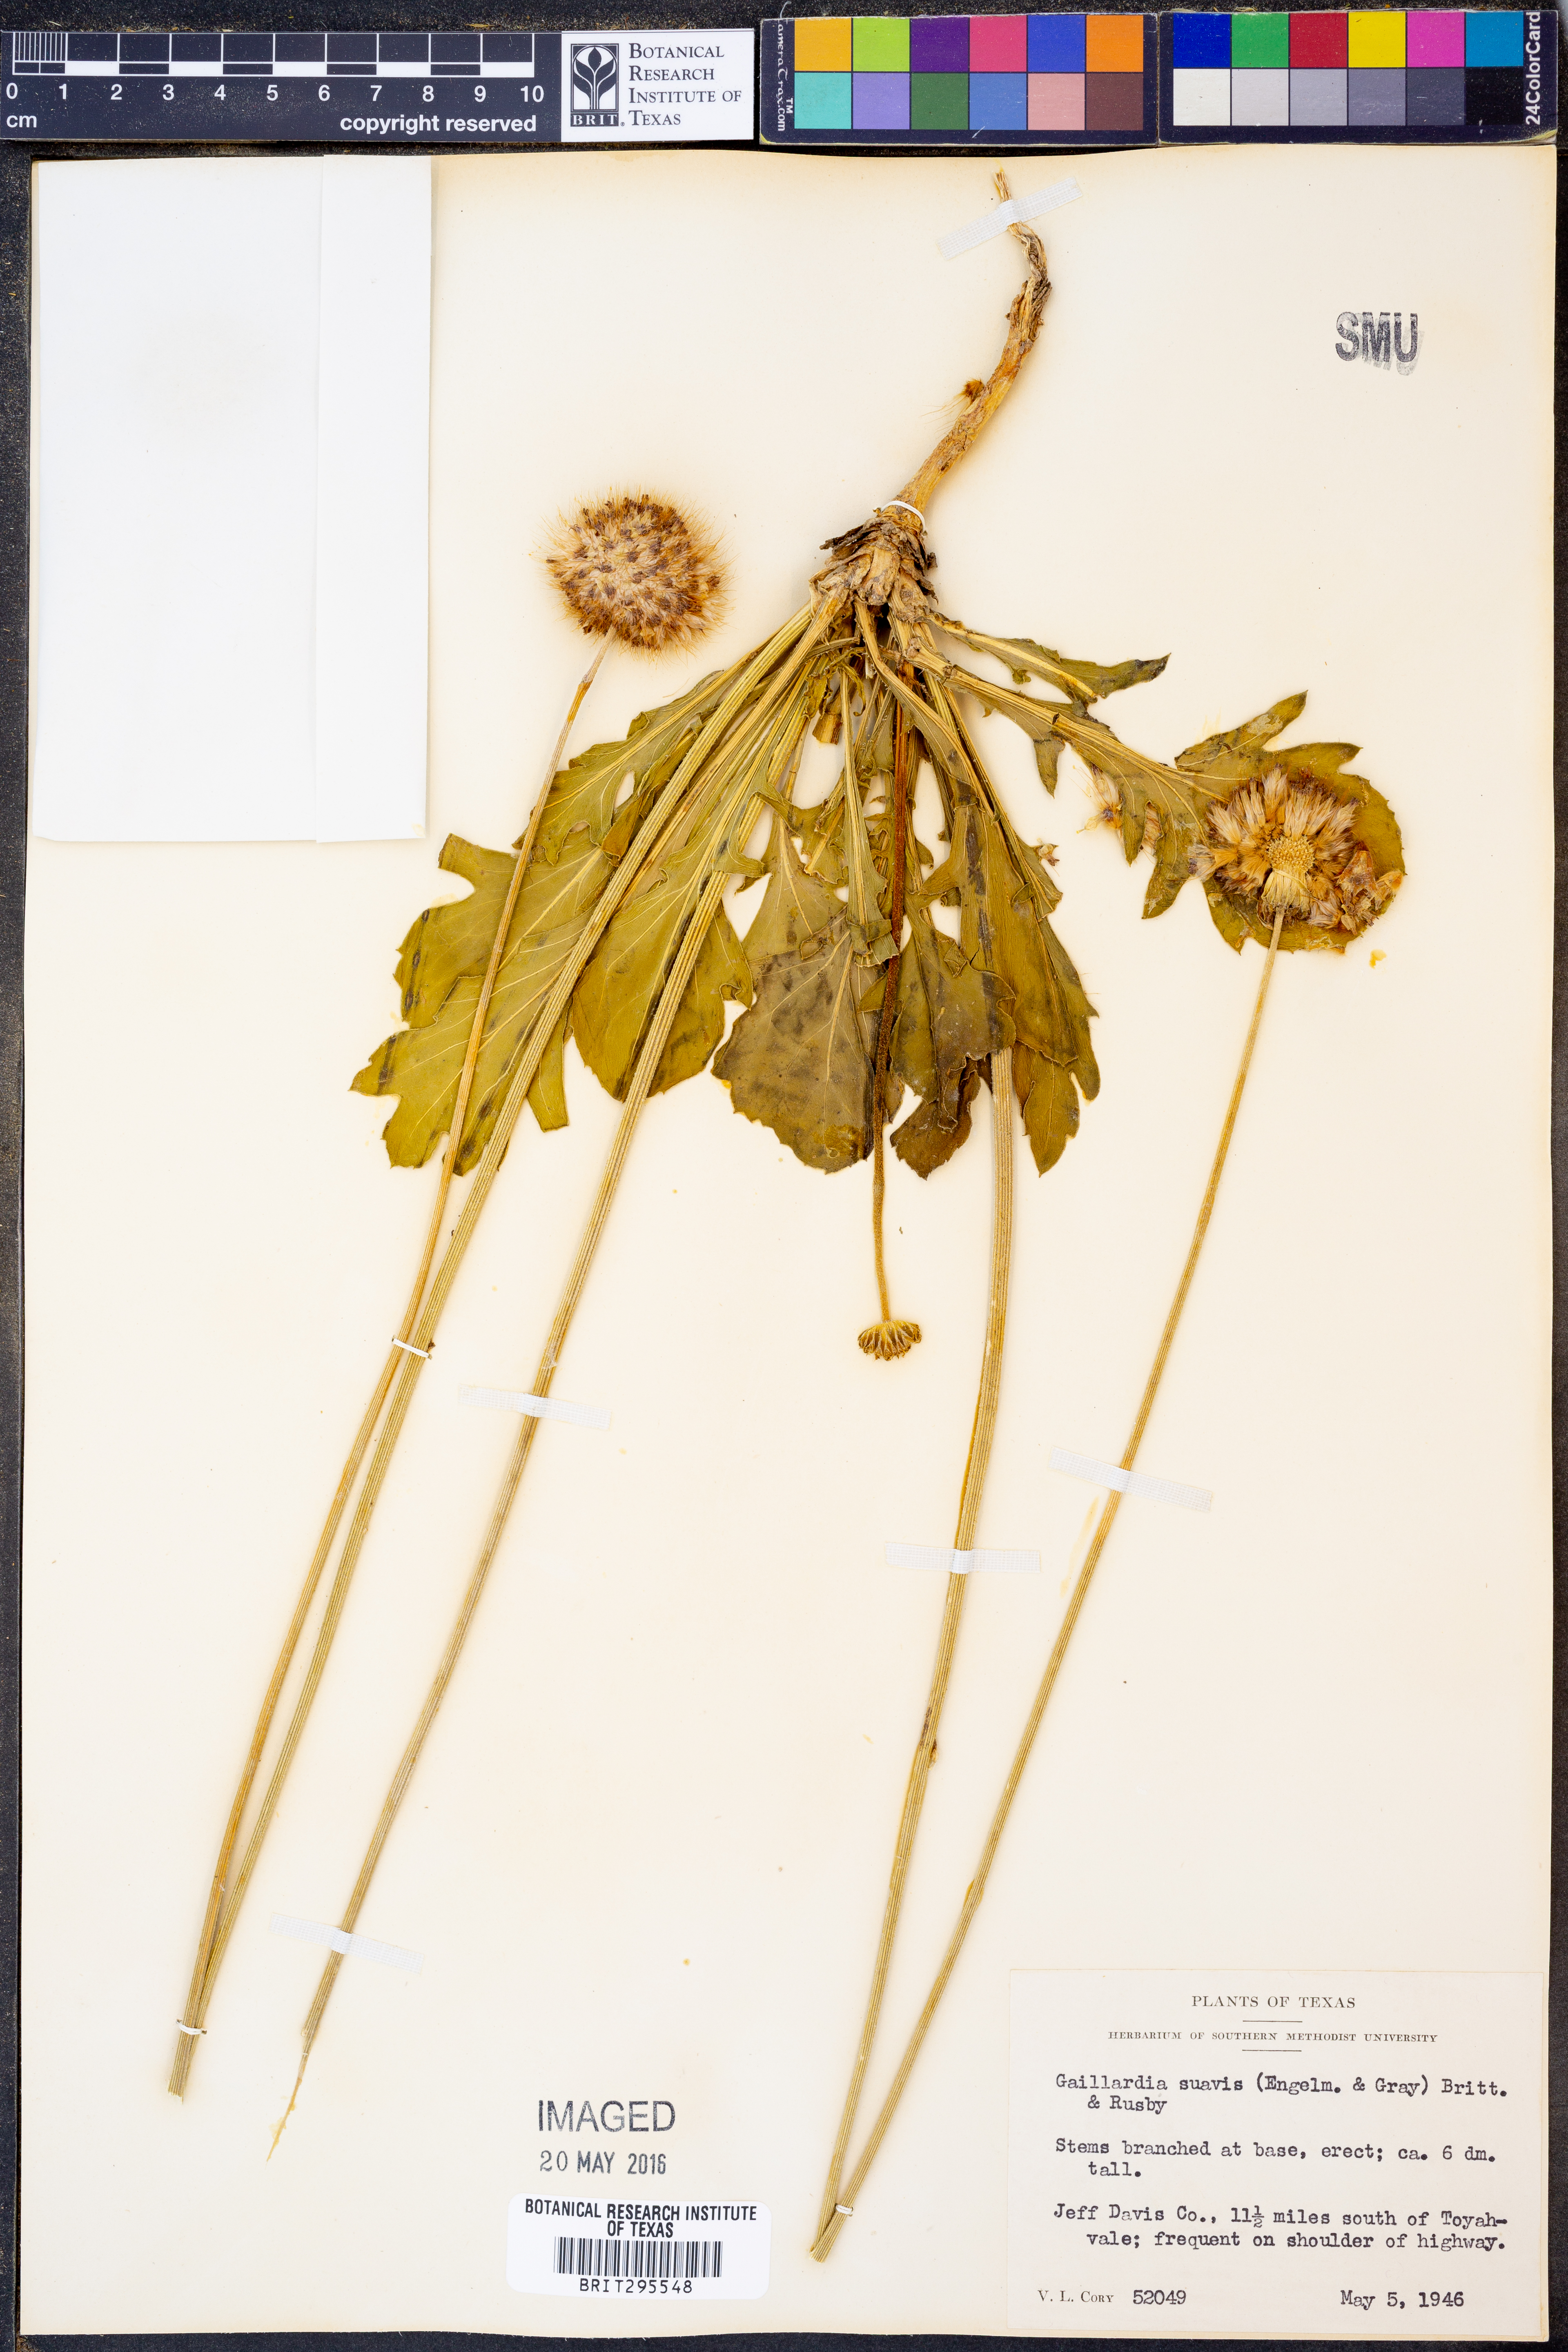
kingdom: Plantae
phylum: Tracheophyta
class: Magnoliopsida
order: Asterales
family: Asteraceae
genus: Gaillardia
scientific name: Gaillardia suavis
